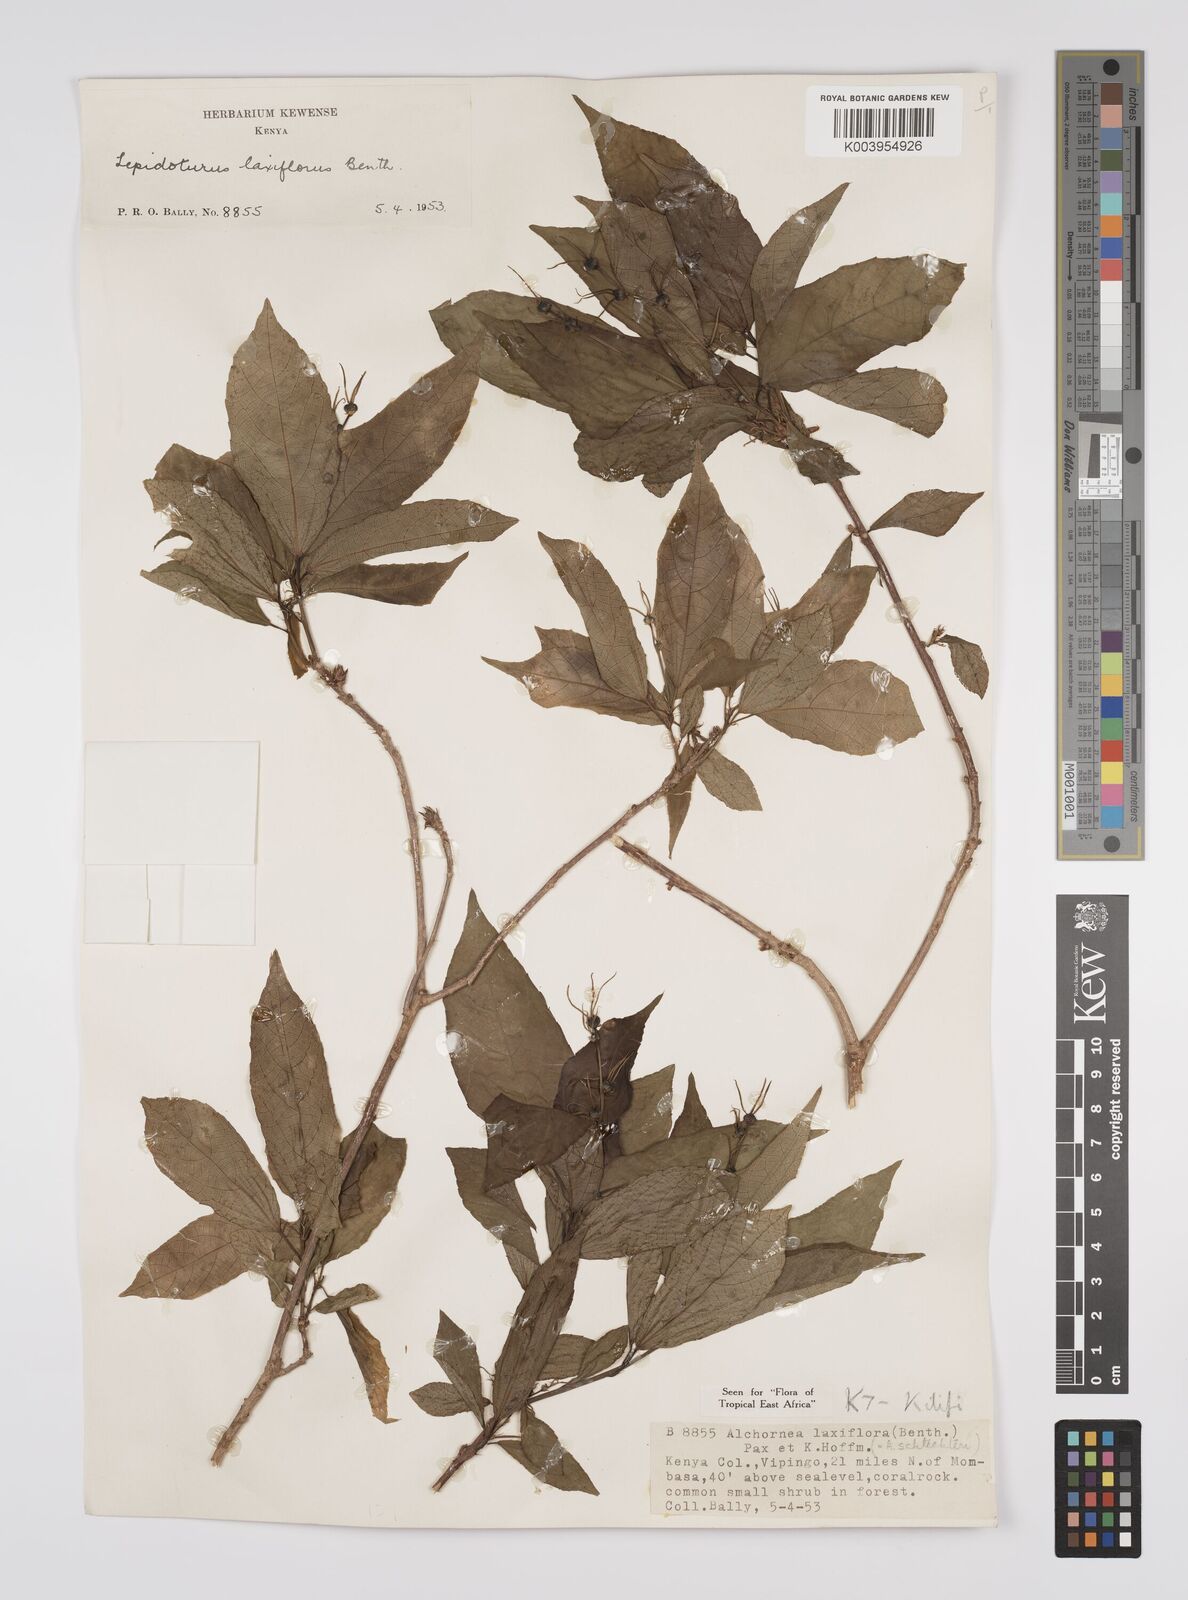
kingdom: Plantae
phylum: Tracheophyta
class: Magnoliopsida
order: Malpighiales
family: Euphorbiaceae
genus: Alchornea
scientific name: Alchornea laxiflora
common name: Lowveld bead-string
